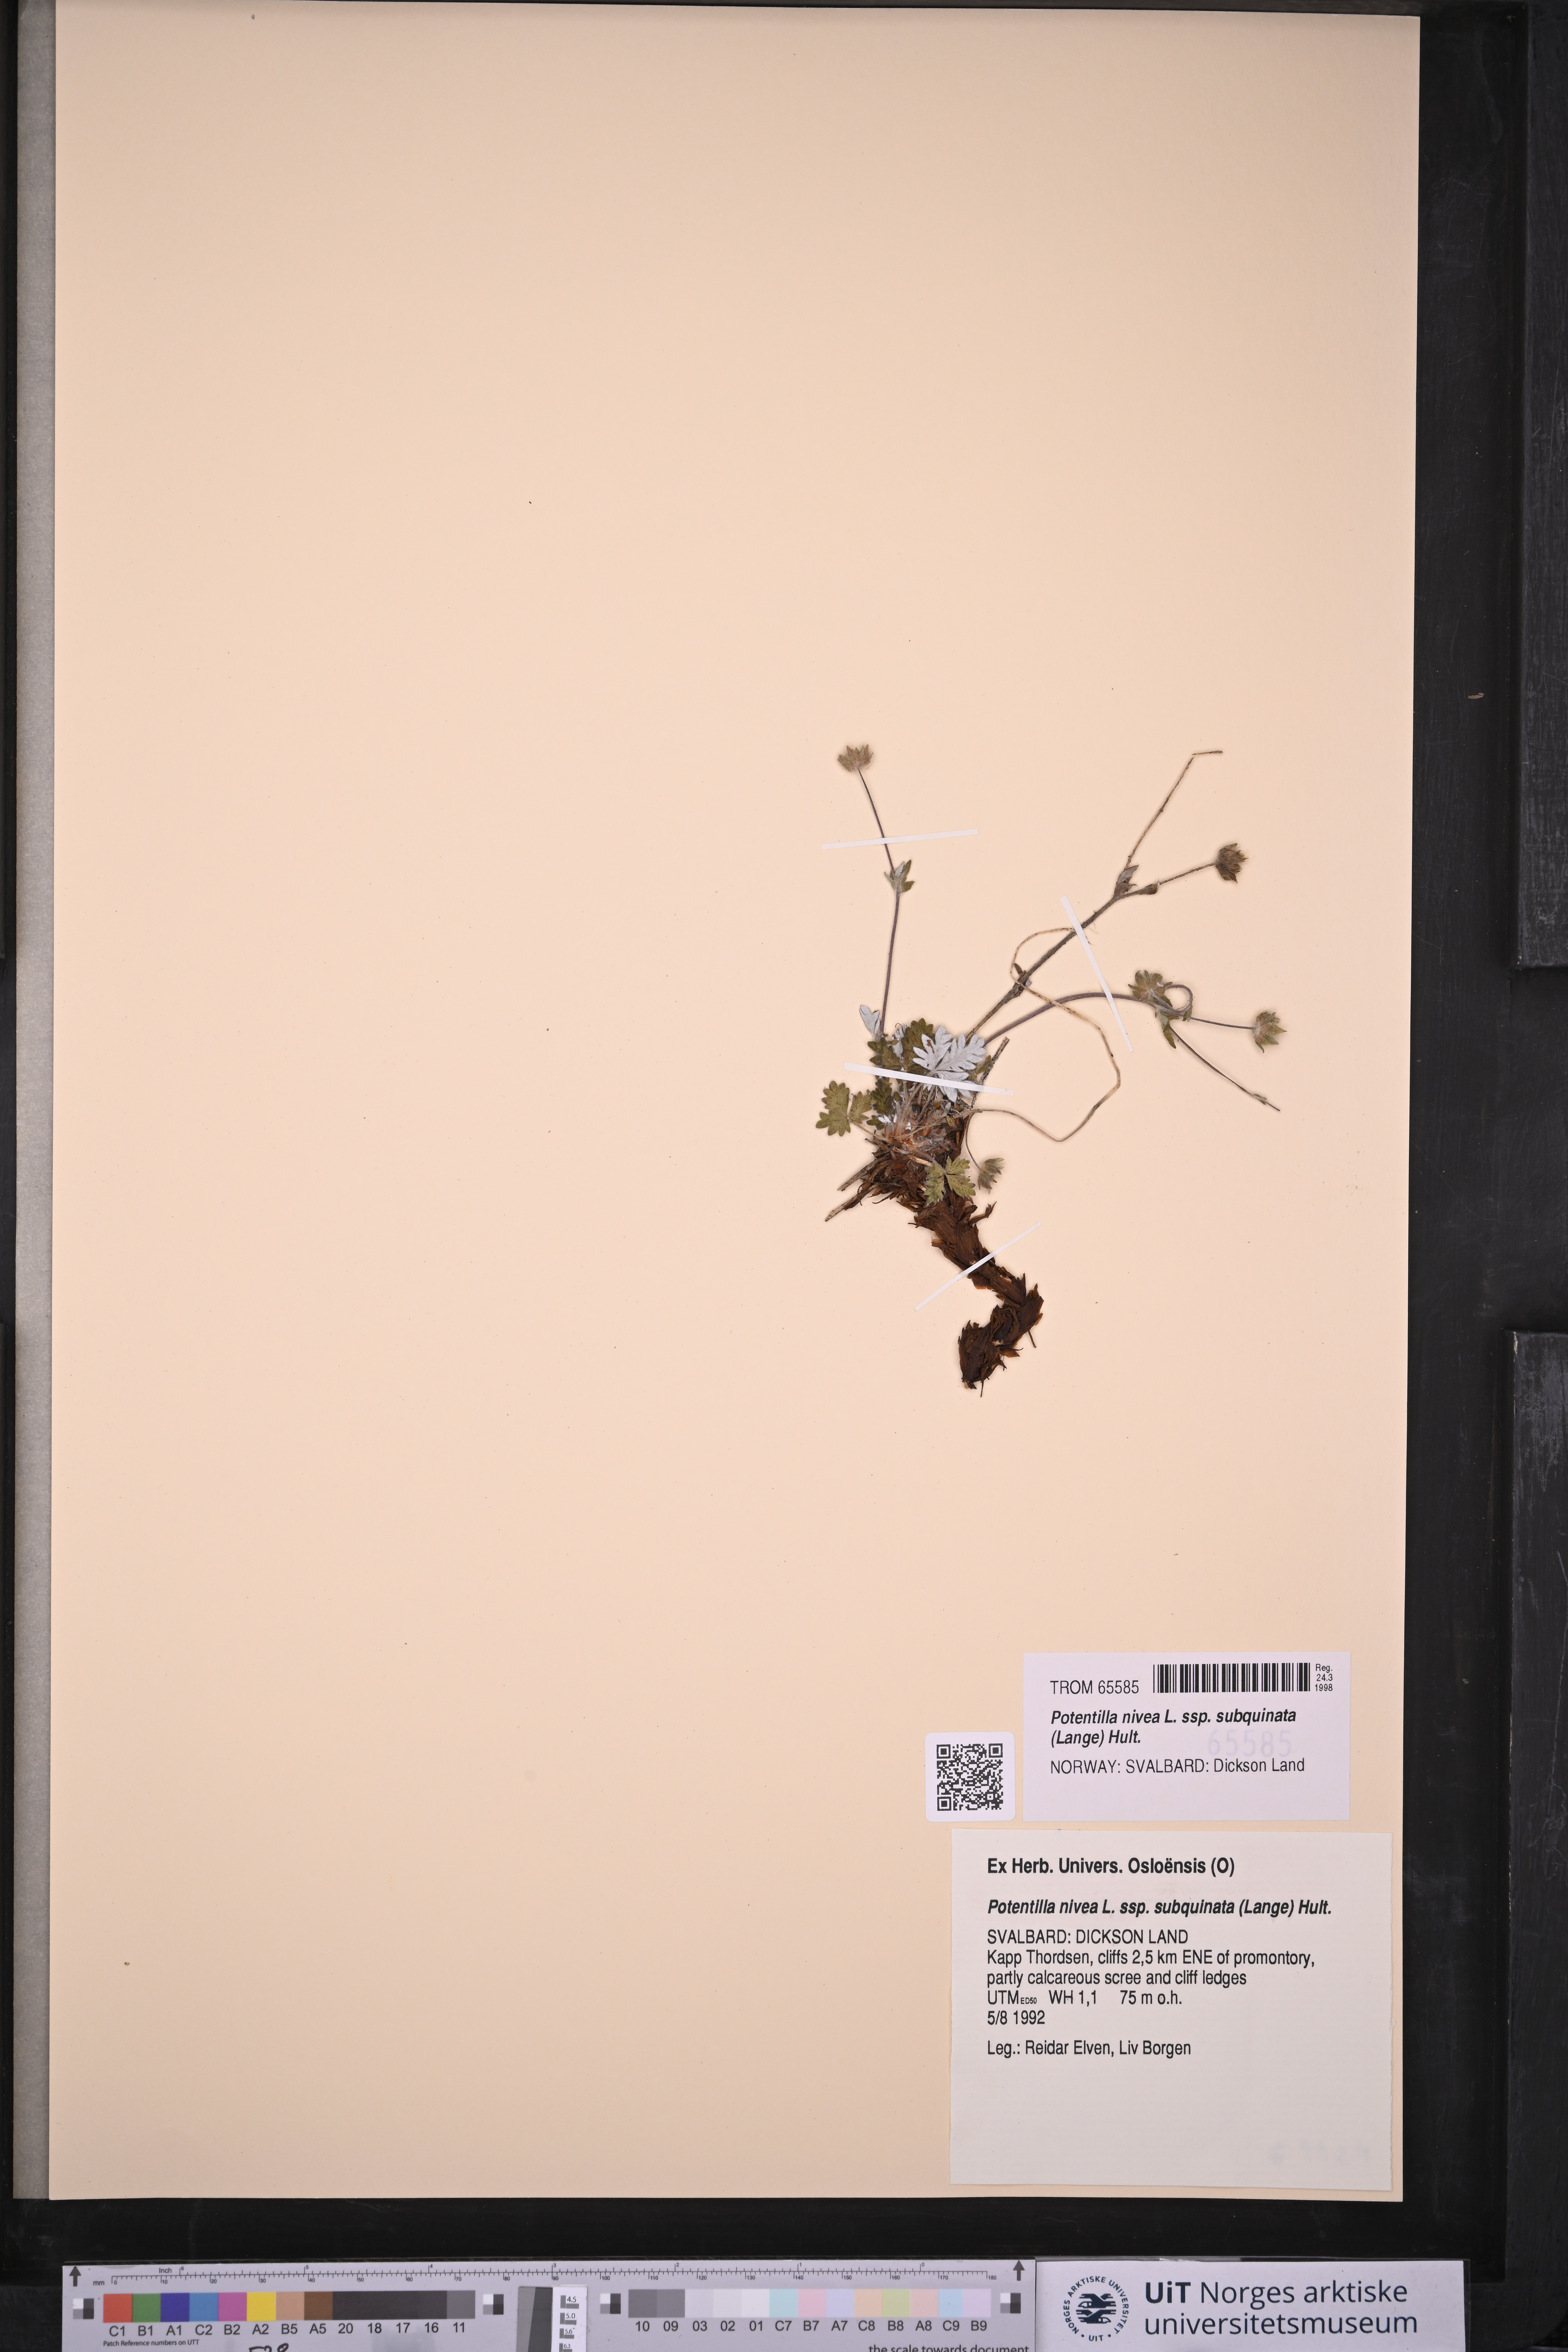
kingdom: Plantae
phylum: Tracheophyta
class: Magnoliopsida
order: Rosales
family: Rosaceae
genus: Potentilla
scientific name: Potentilla prostrata
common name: Prostrate cinquefoil
